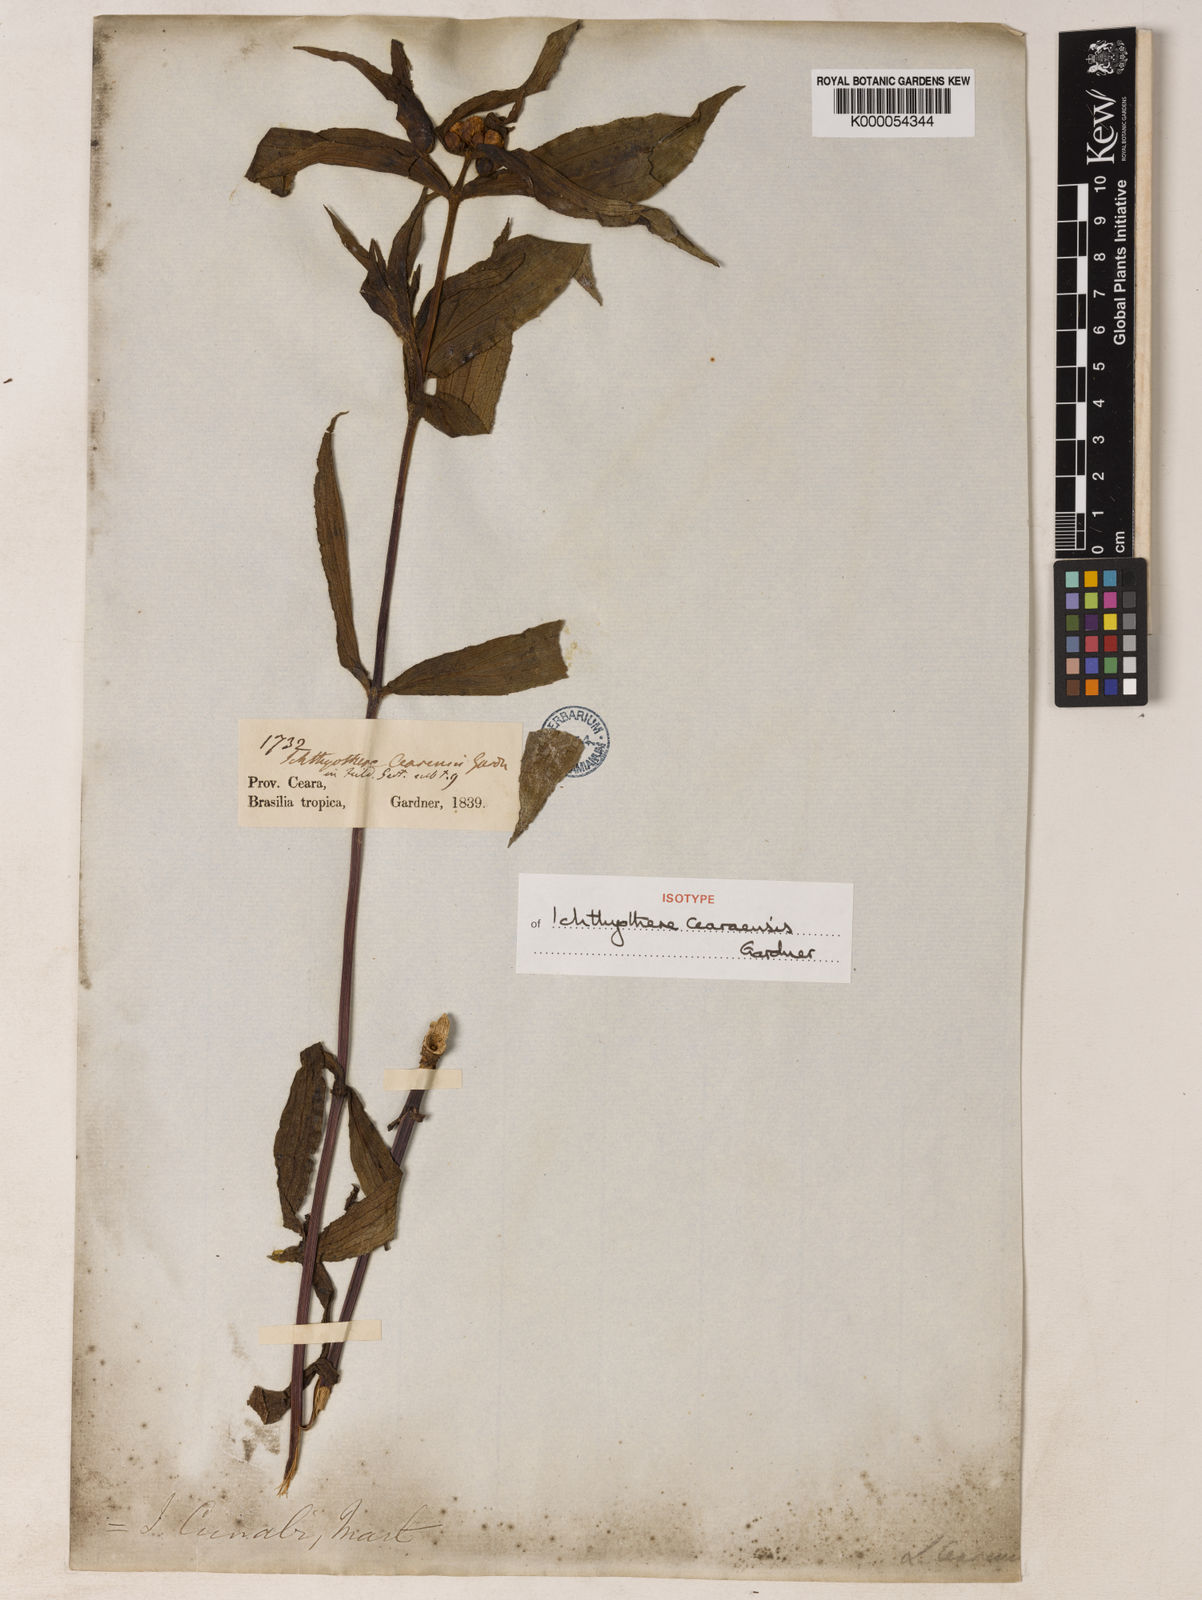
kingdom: Plantae
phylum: Tracheophyta
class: Magnoliopsida
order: Asterales
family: Asteraceae
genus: Ichthyothere
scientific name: Ichthyothere terminalis
